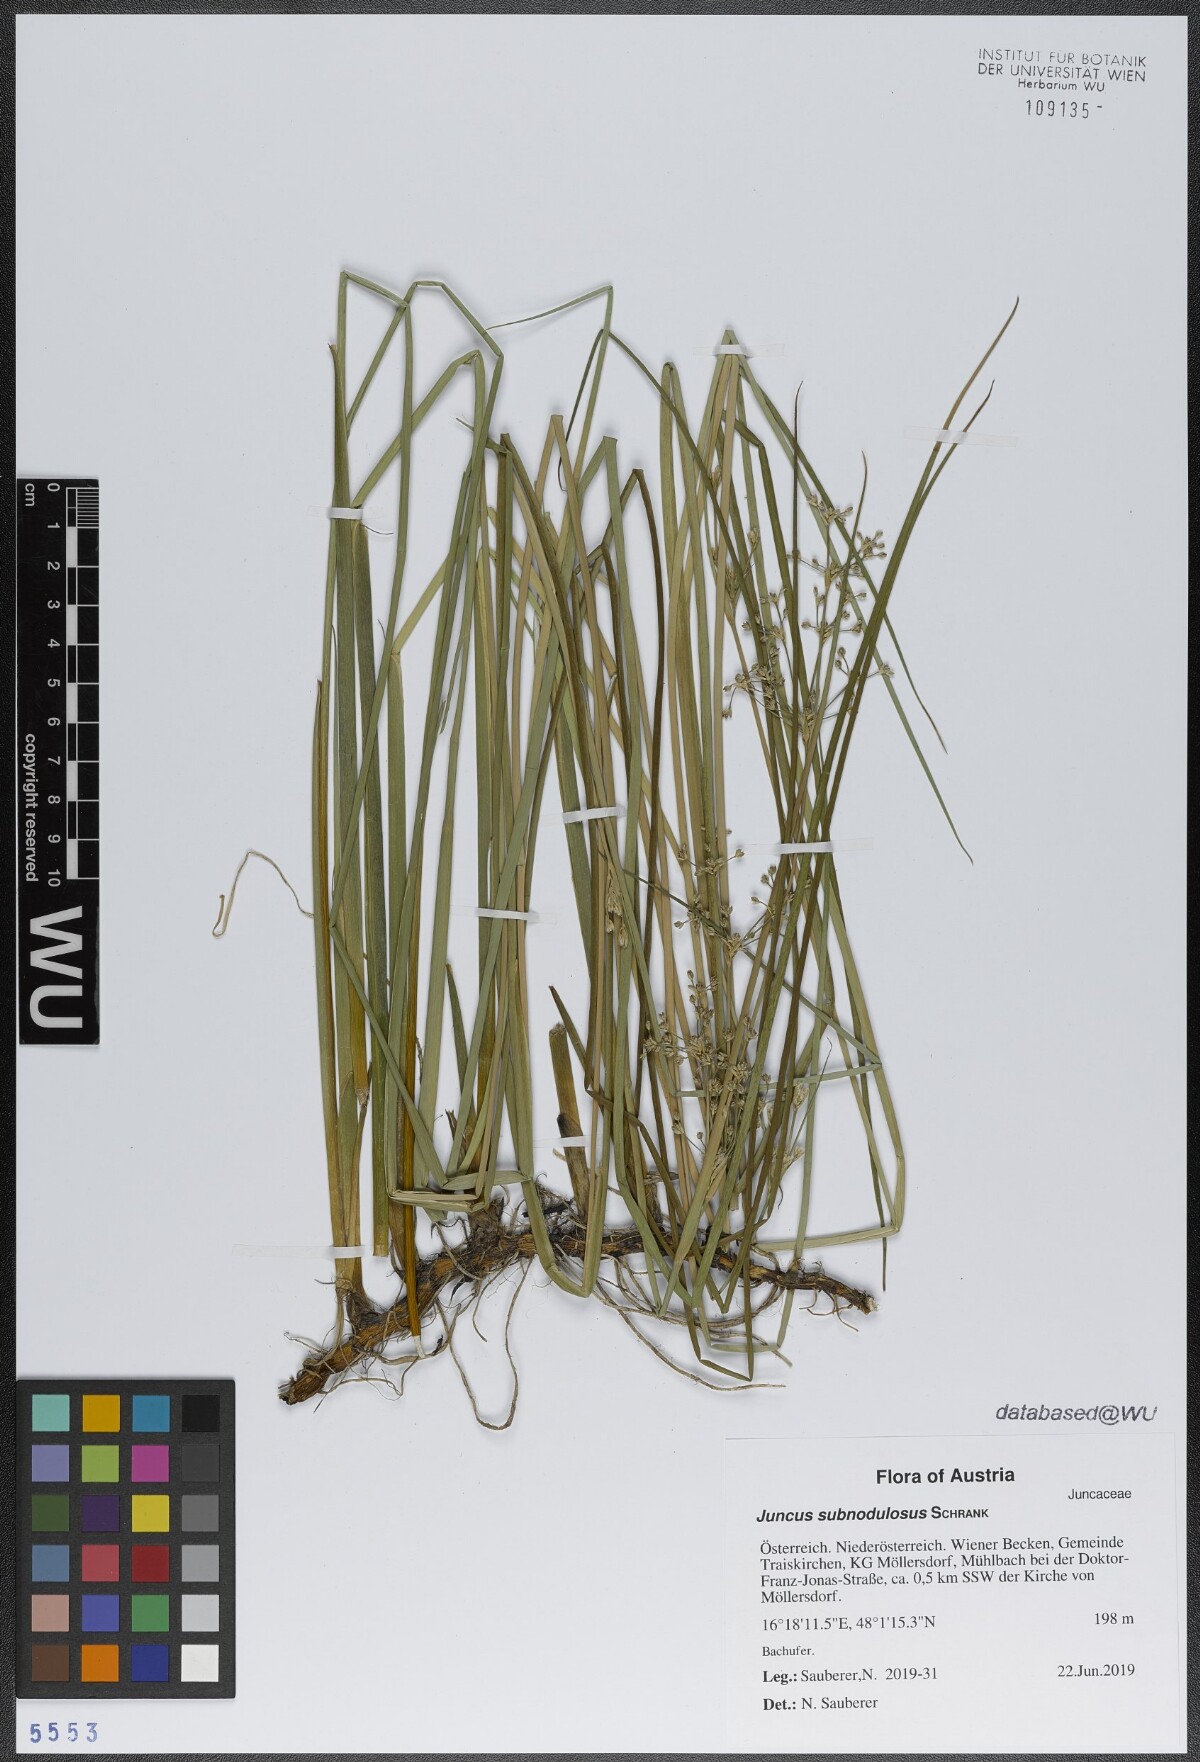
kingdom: Plantae
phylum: Tracheophyta
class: Liliopsida
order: Poales
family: Juncaceae
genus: Juncus
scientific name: Juncus subnodulosus
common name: Blunt-flowered rush
